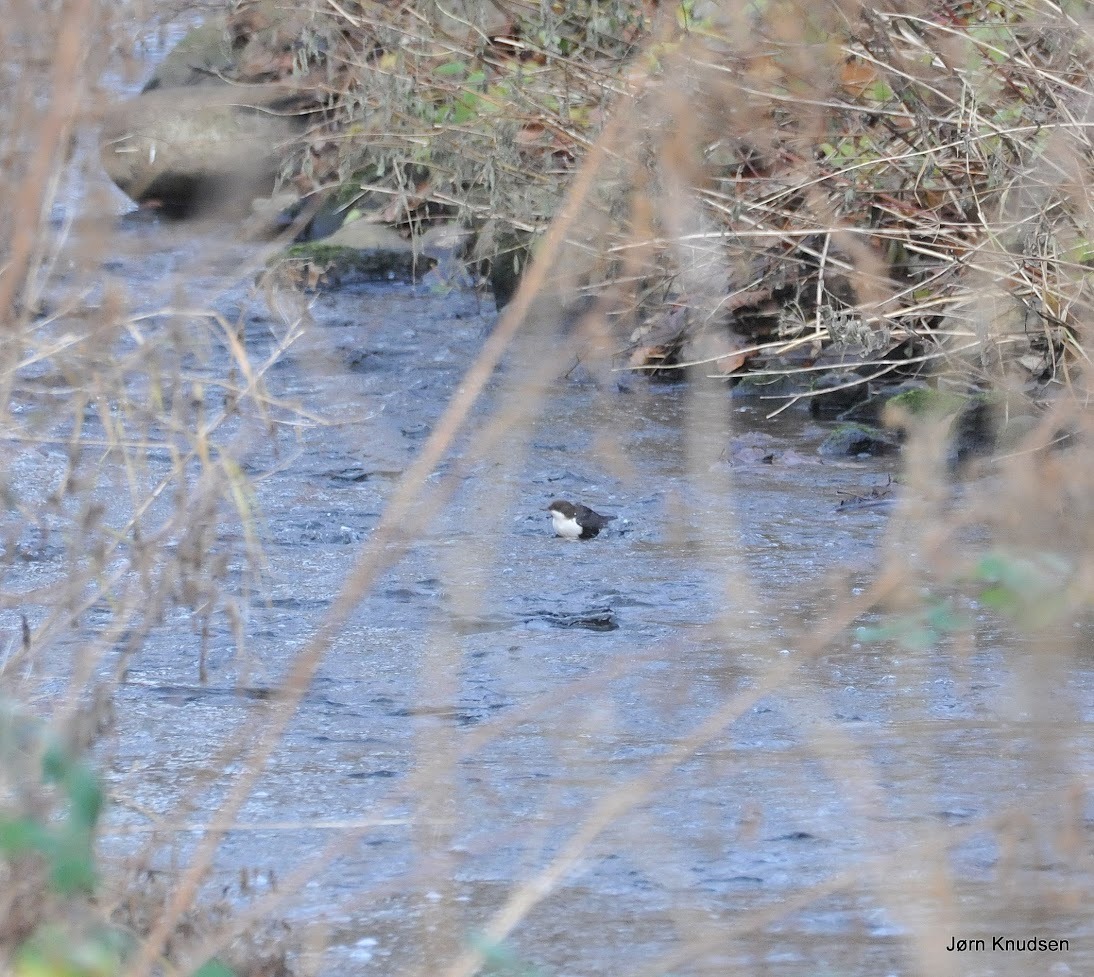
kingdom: Animalia
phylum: Chordata
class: Aves
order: Passeriformes
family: Cinclidae
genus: Cinclus
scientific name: Cinclus cinclus
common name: Vandstær
